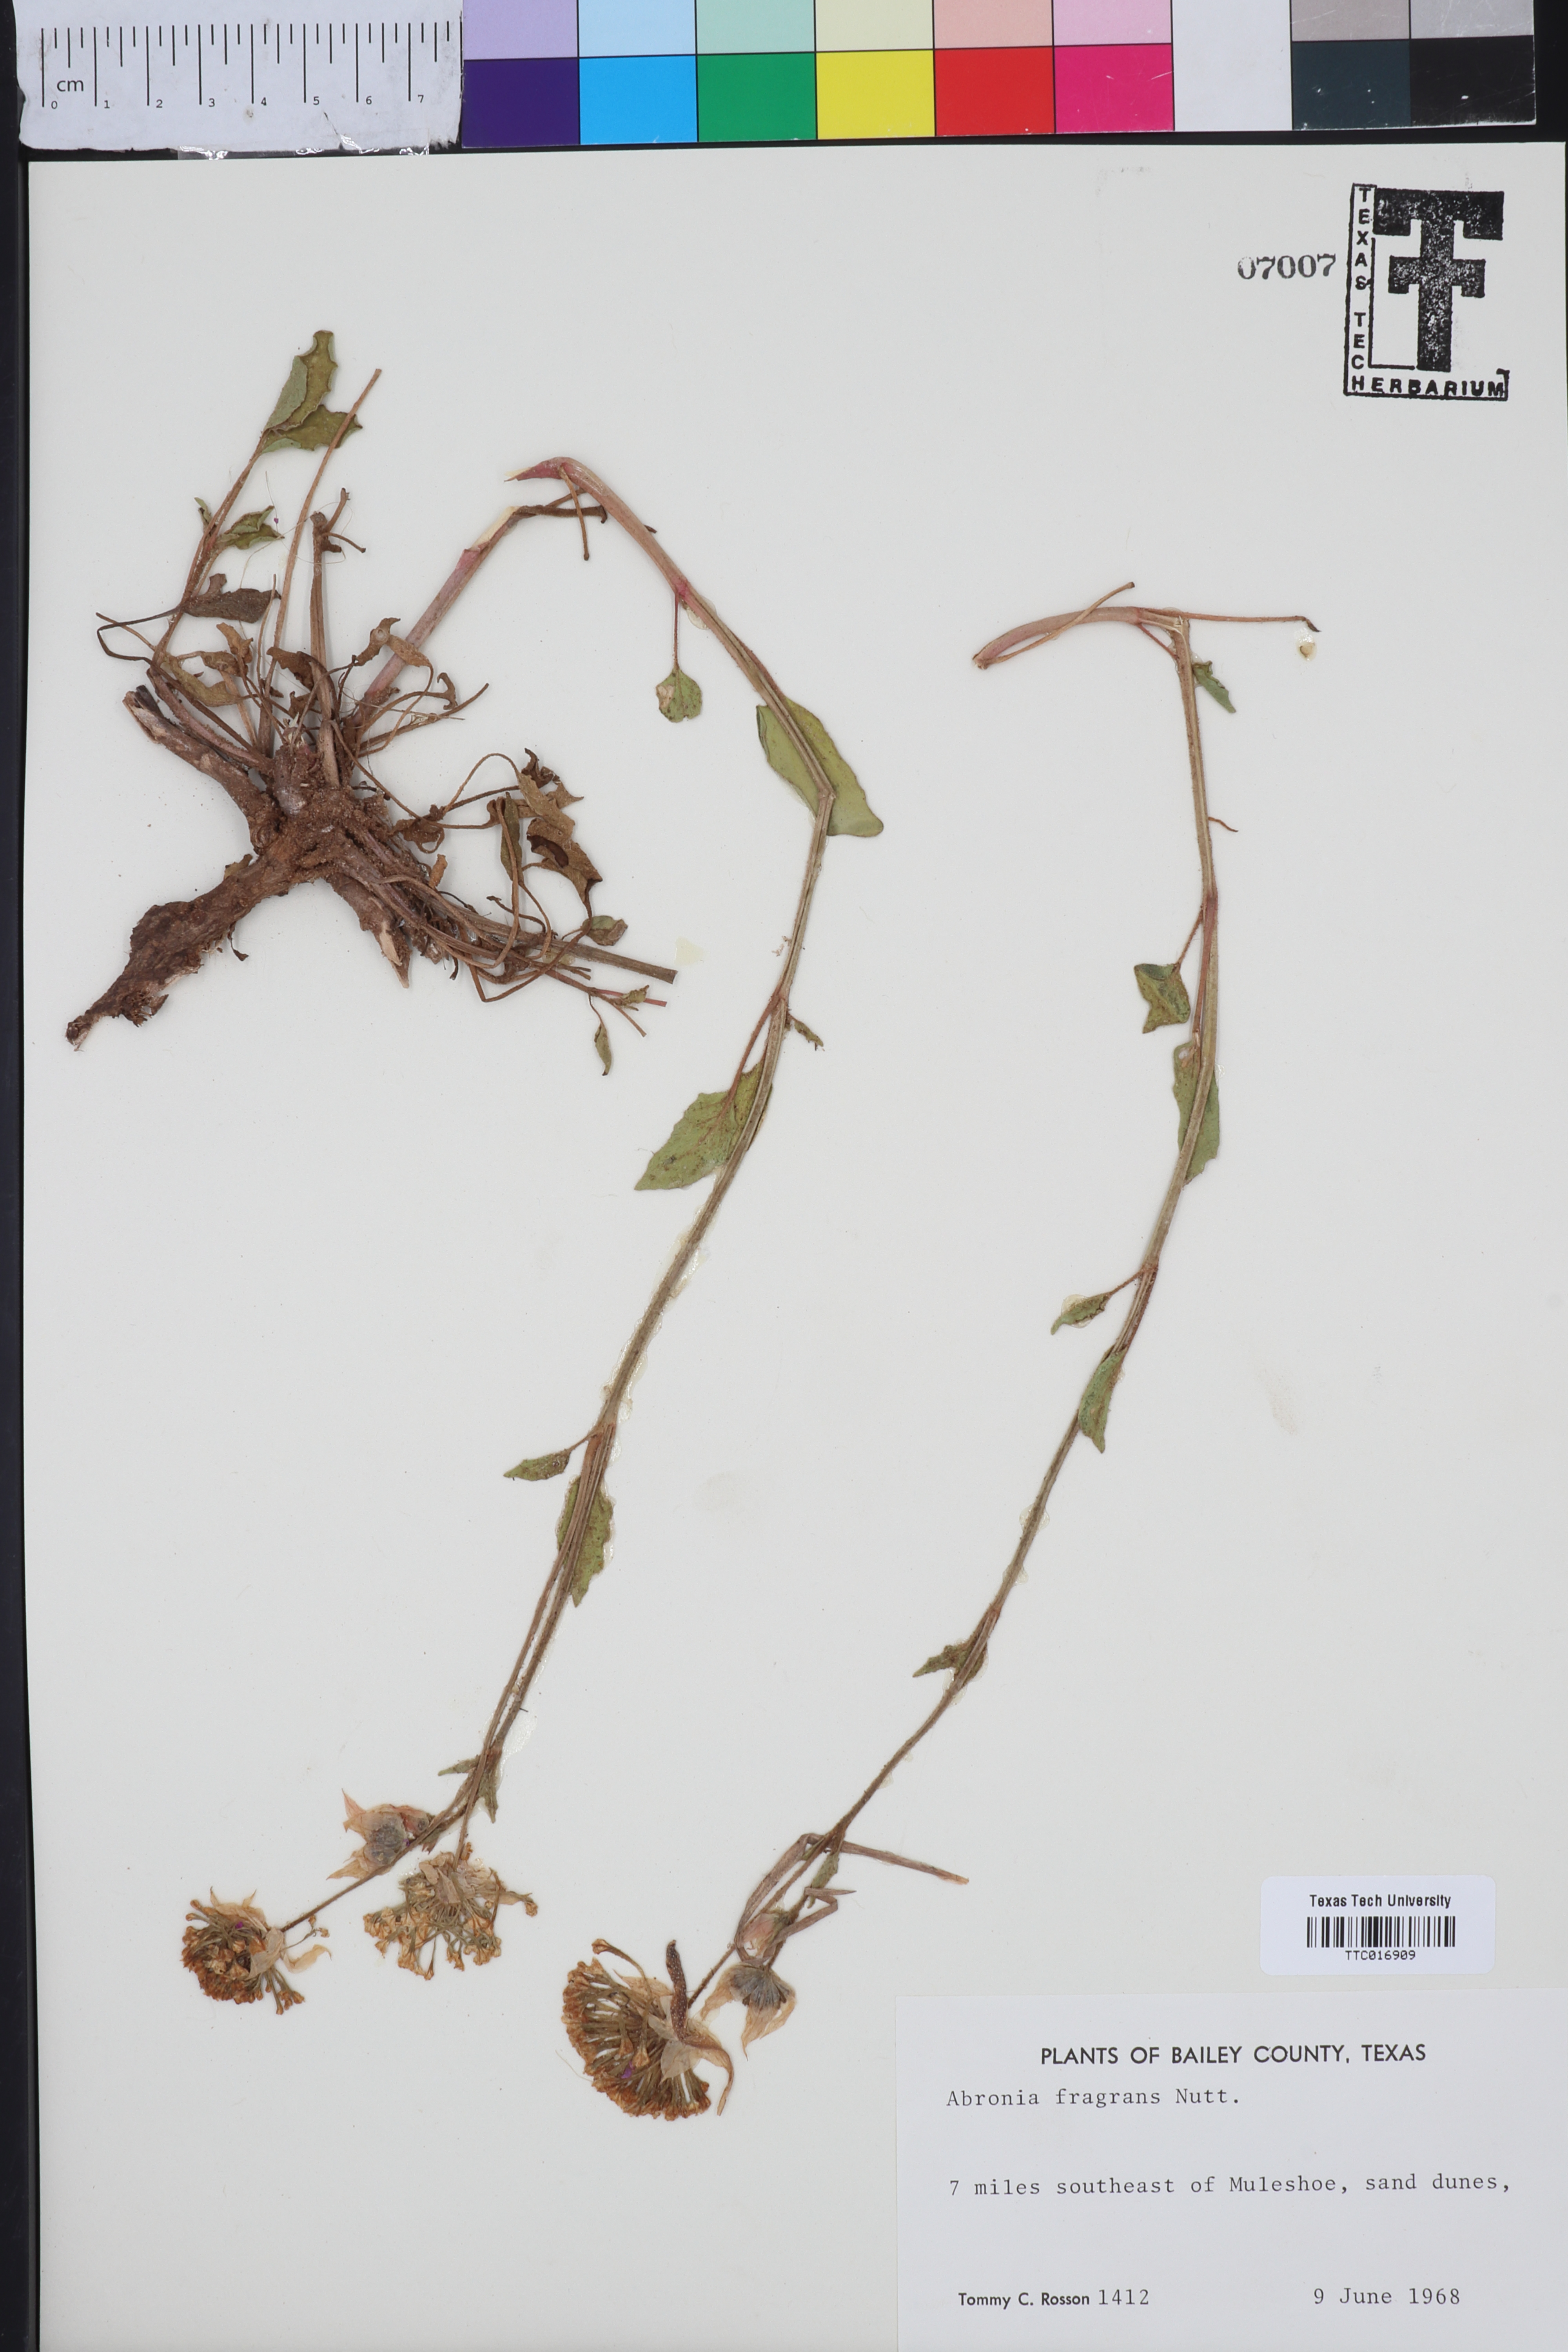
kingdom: Plantae
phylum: Tracheophyta
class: Magnoliopsida
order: Caryophyllales
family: Nyctaginaceae
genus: Abronia
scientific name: Abronia fragrans
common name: Fragrant sand-verbena
